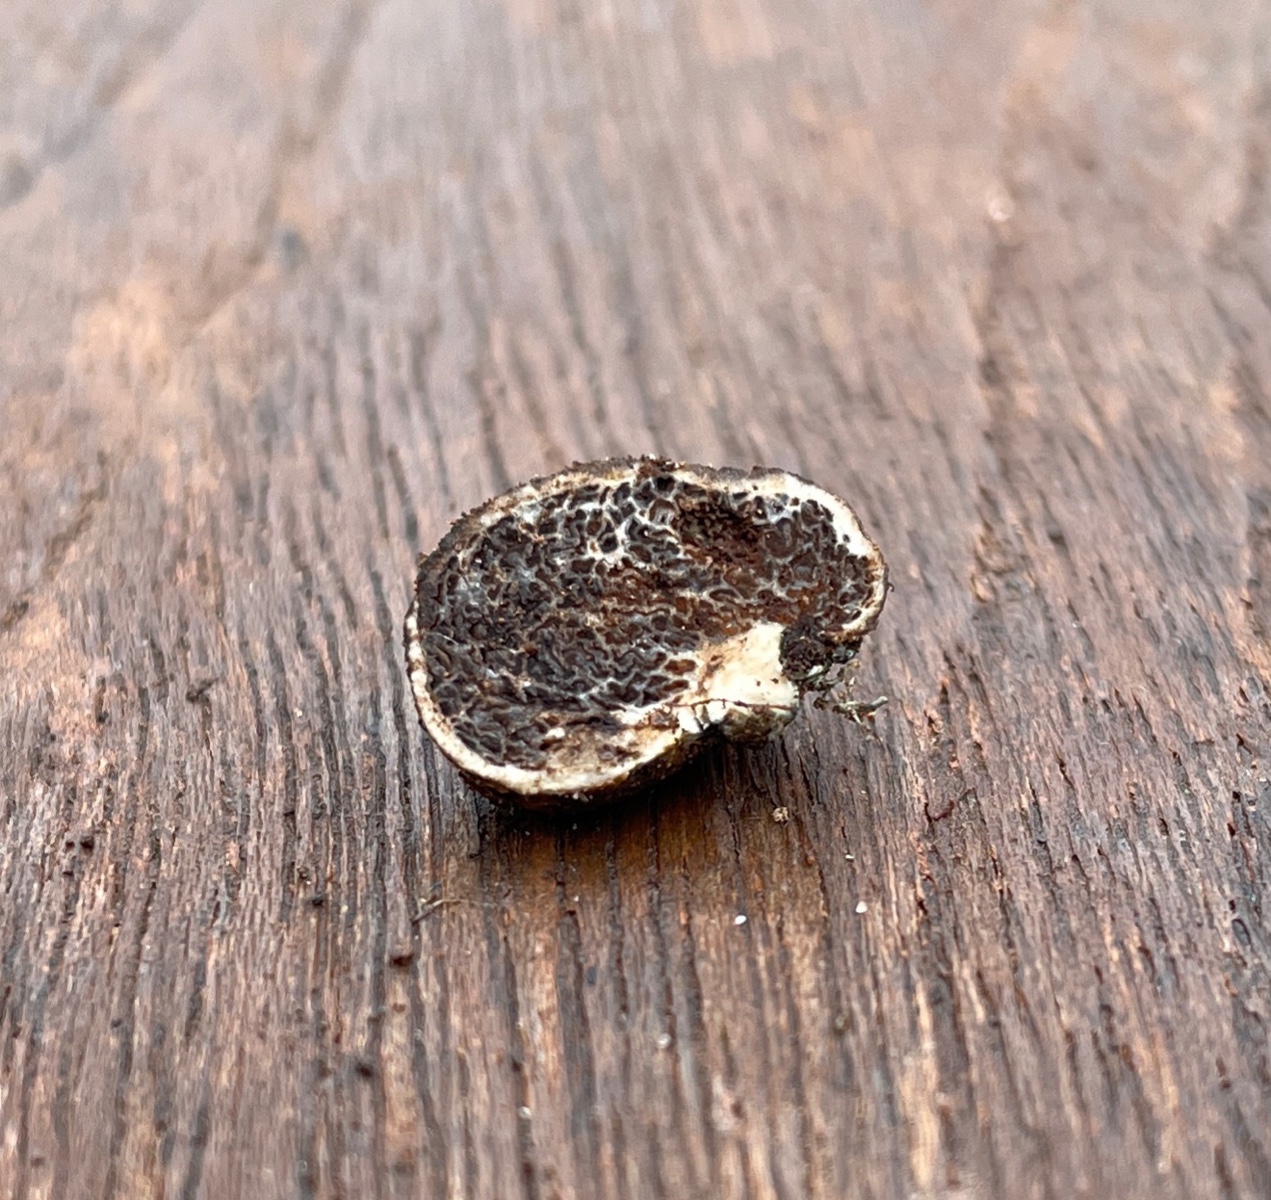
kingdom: Fungi
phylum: Basidiomycota
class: Agaricomycetes
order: Boletales
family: Boletaceae
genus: Octaviania
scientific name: Octaviania
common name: løvtrøffel
